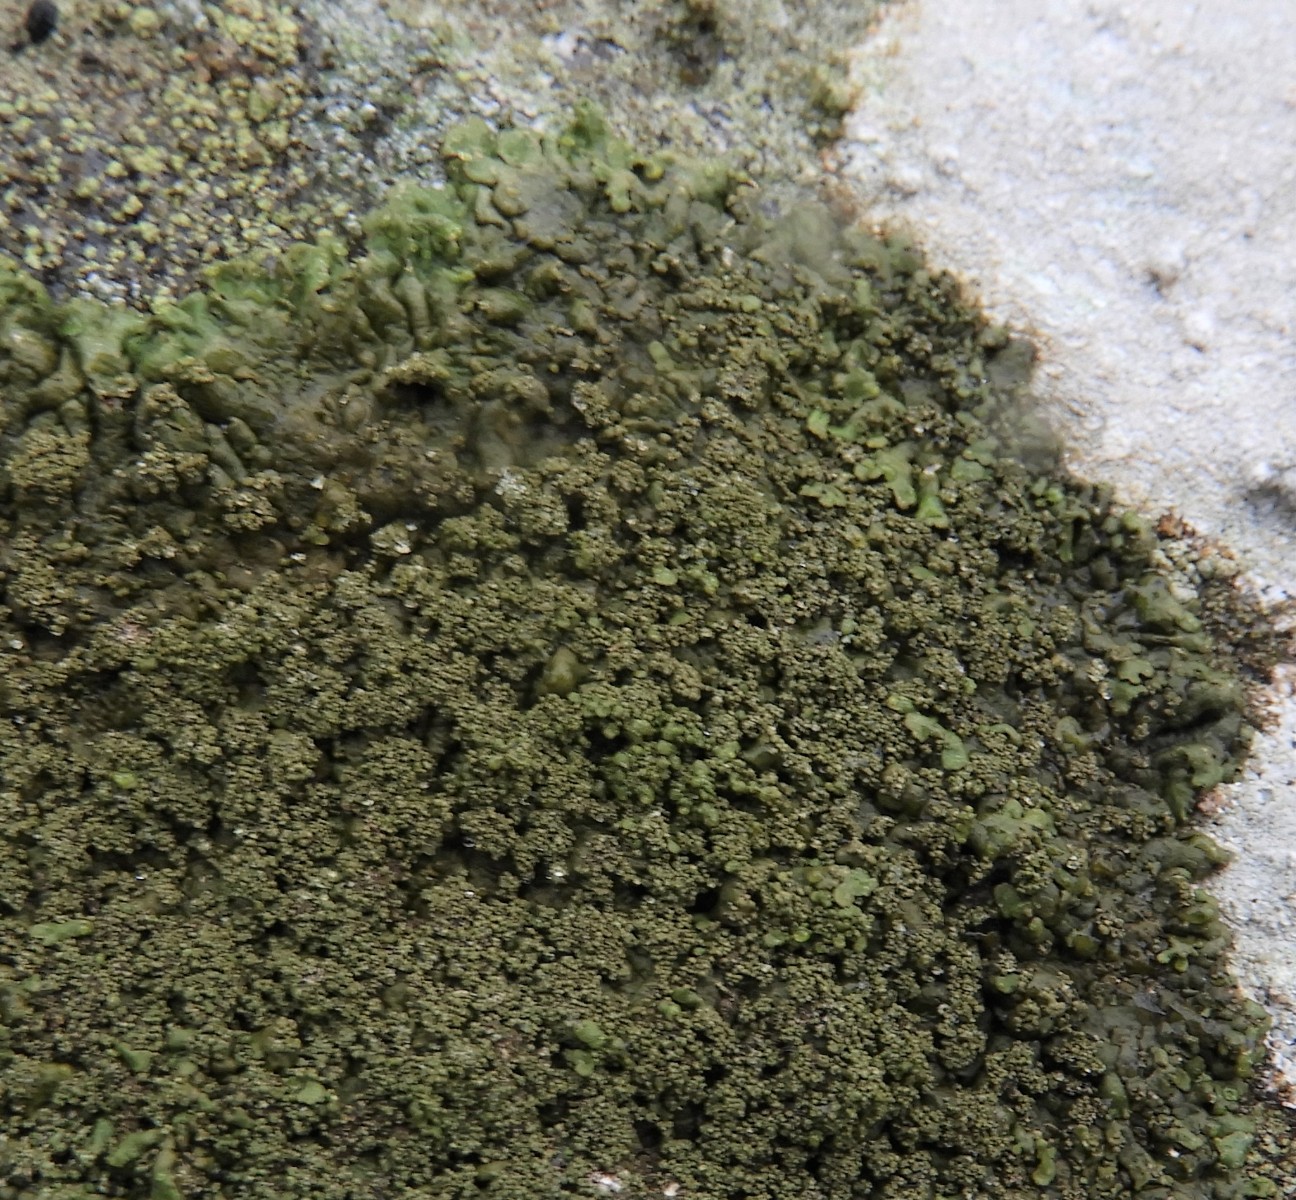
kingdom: Fungi
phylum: Ascomycota
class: Lecanoromycetes
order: Lecanorales
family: Parmeliaceae
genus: Xanthoparmelia
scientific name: Xanthoparmelia verruculifera
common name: småknoppet skållav
